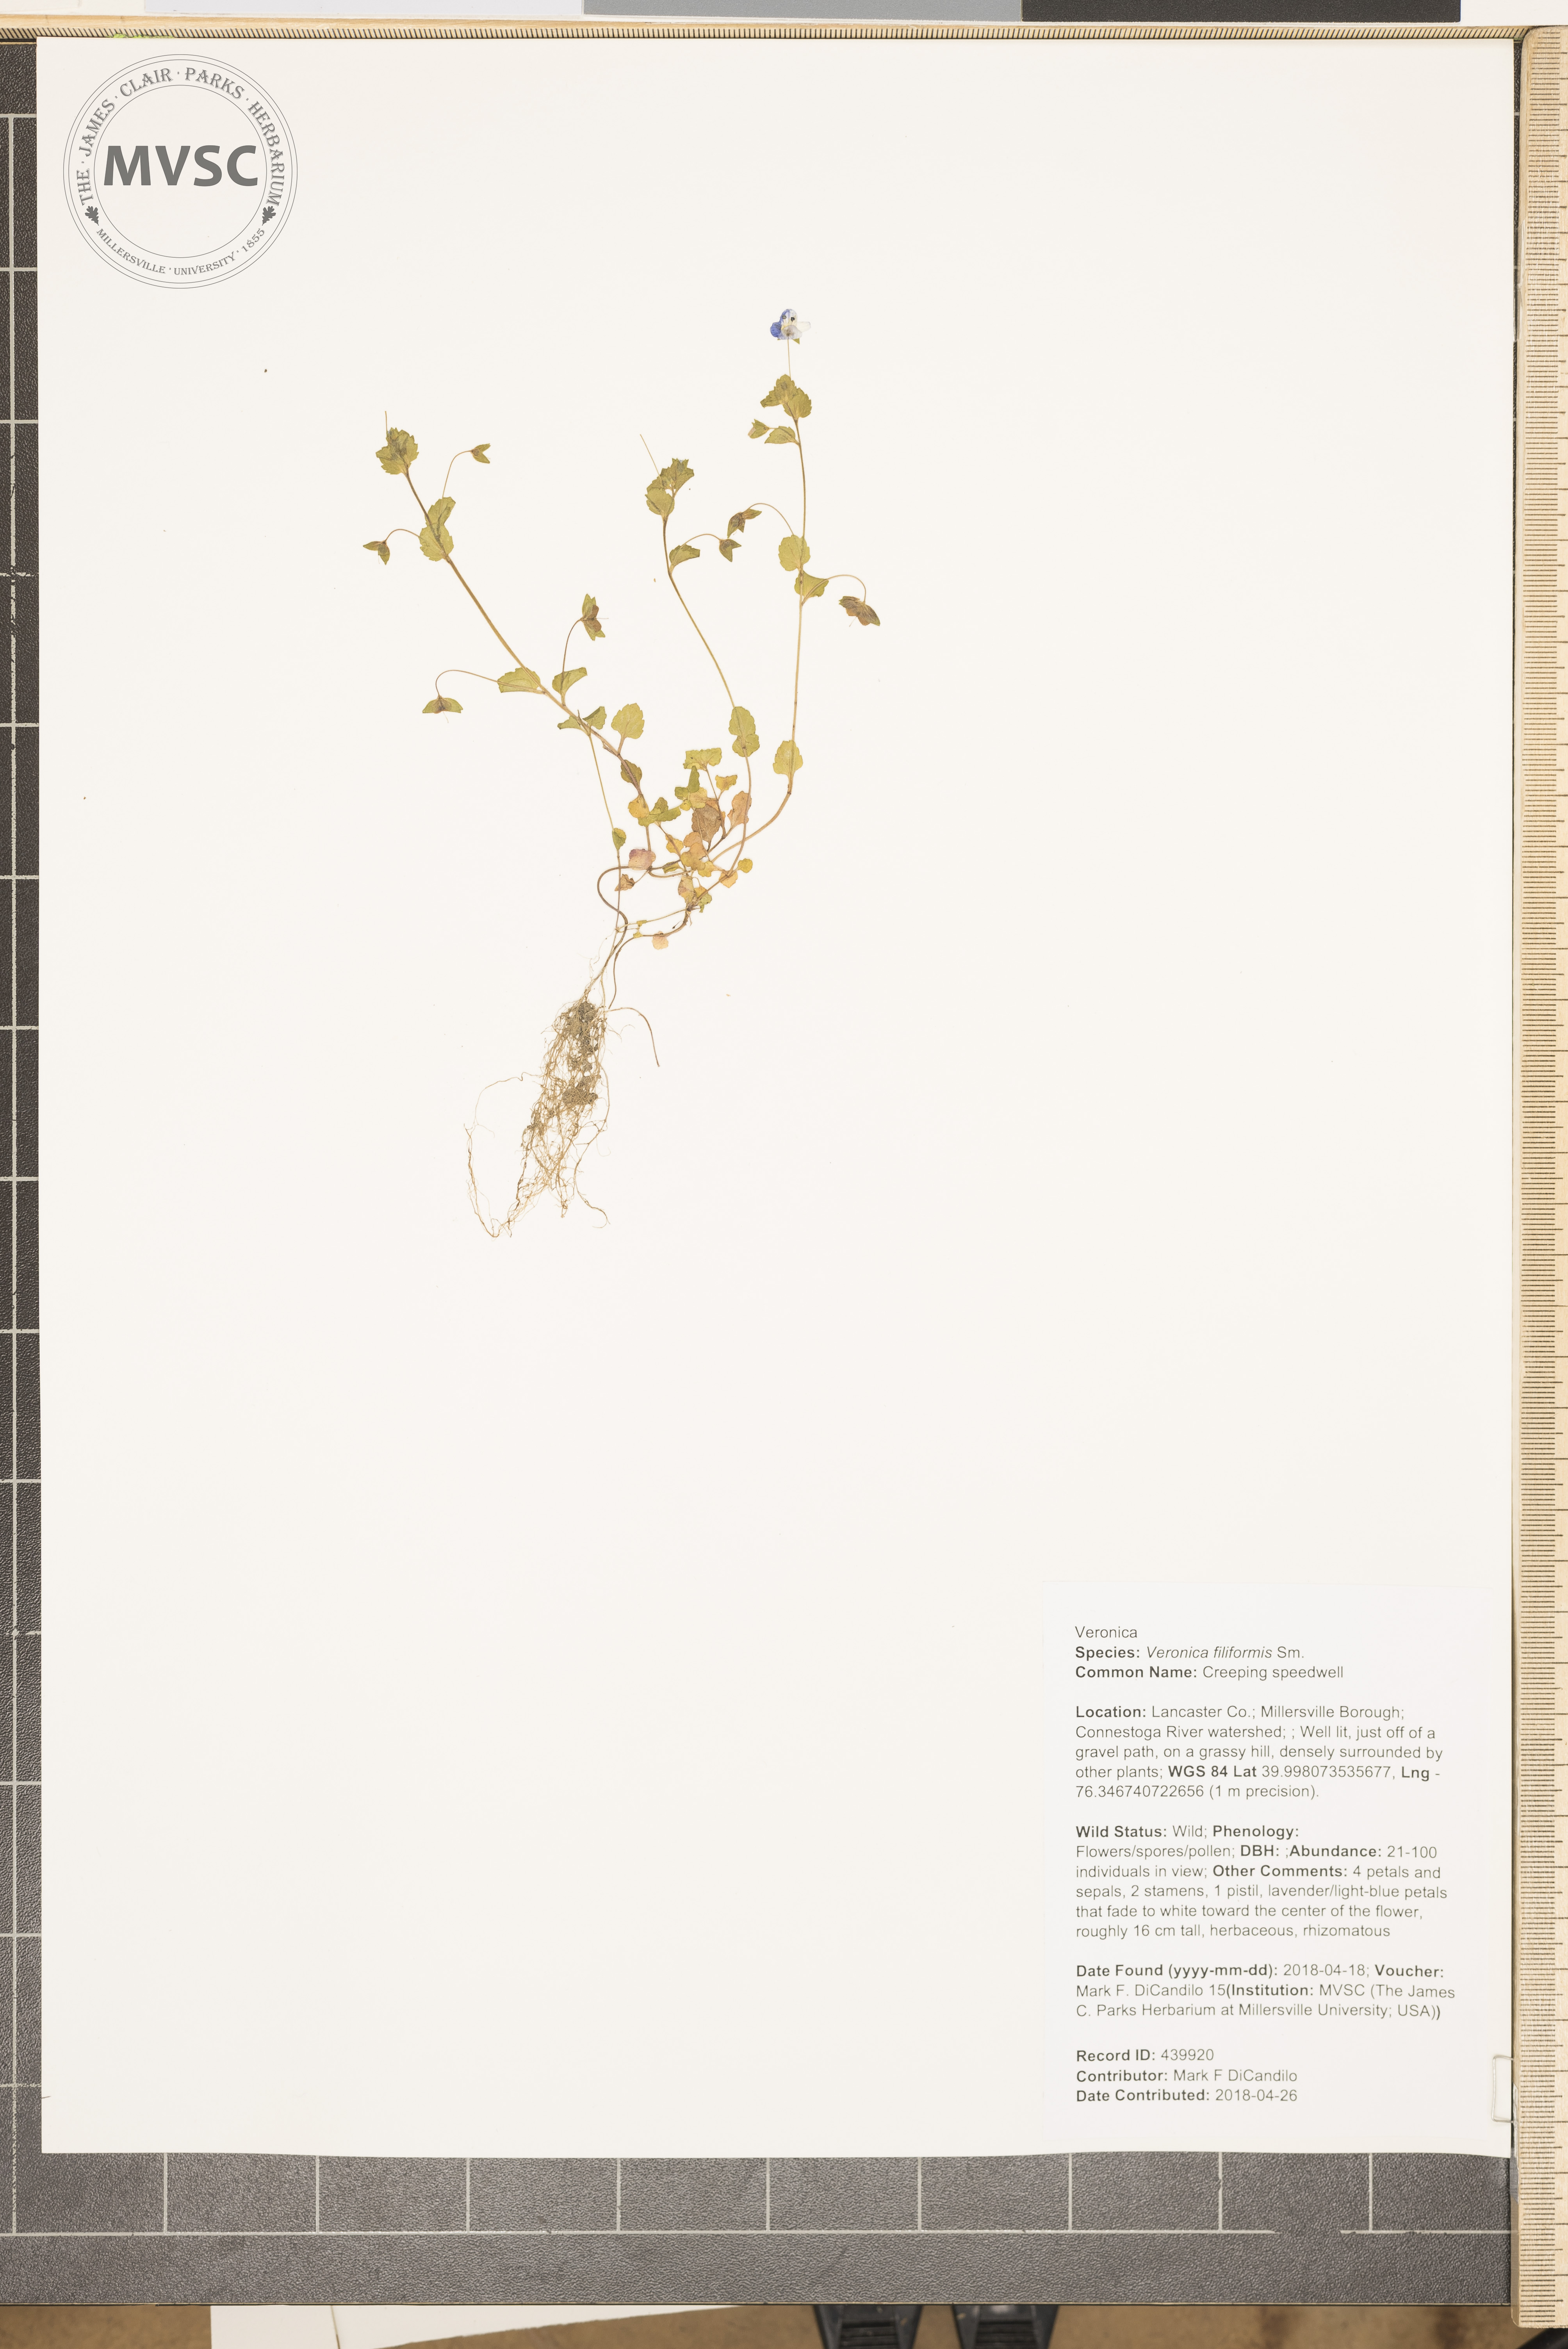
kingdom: Plantae
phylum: Tracheophyta
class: Magnoliopsida
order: Lamiales
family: Plantaginaceae
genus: Veronica
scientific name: Veronica filiformis
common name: Creeping speedwell
